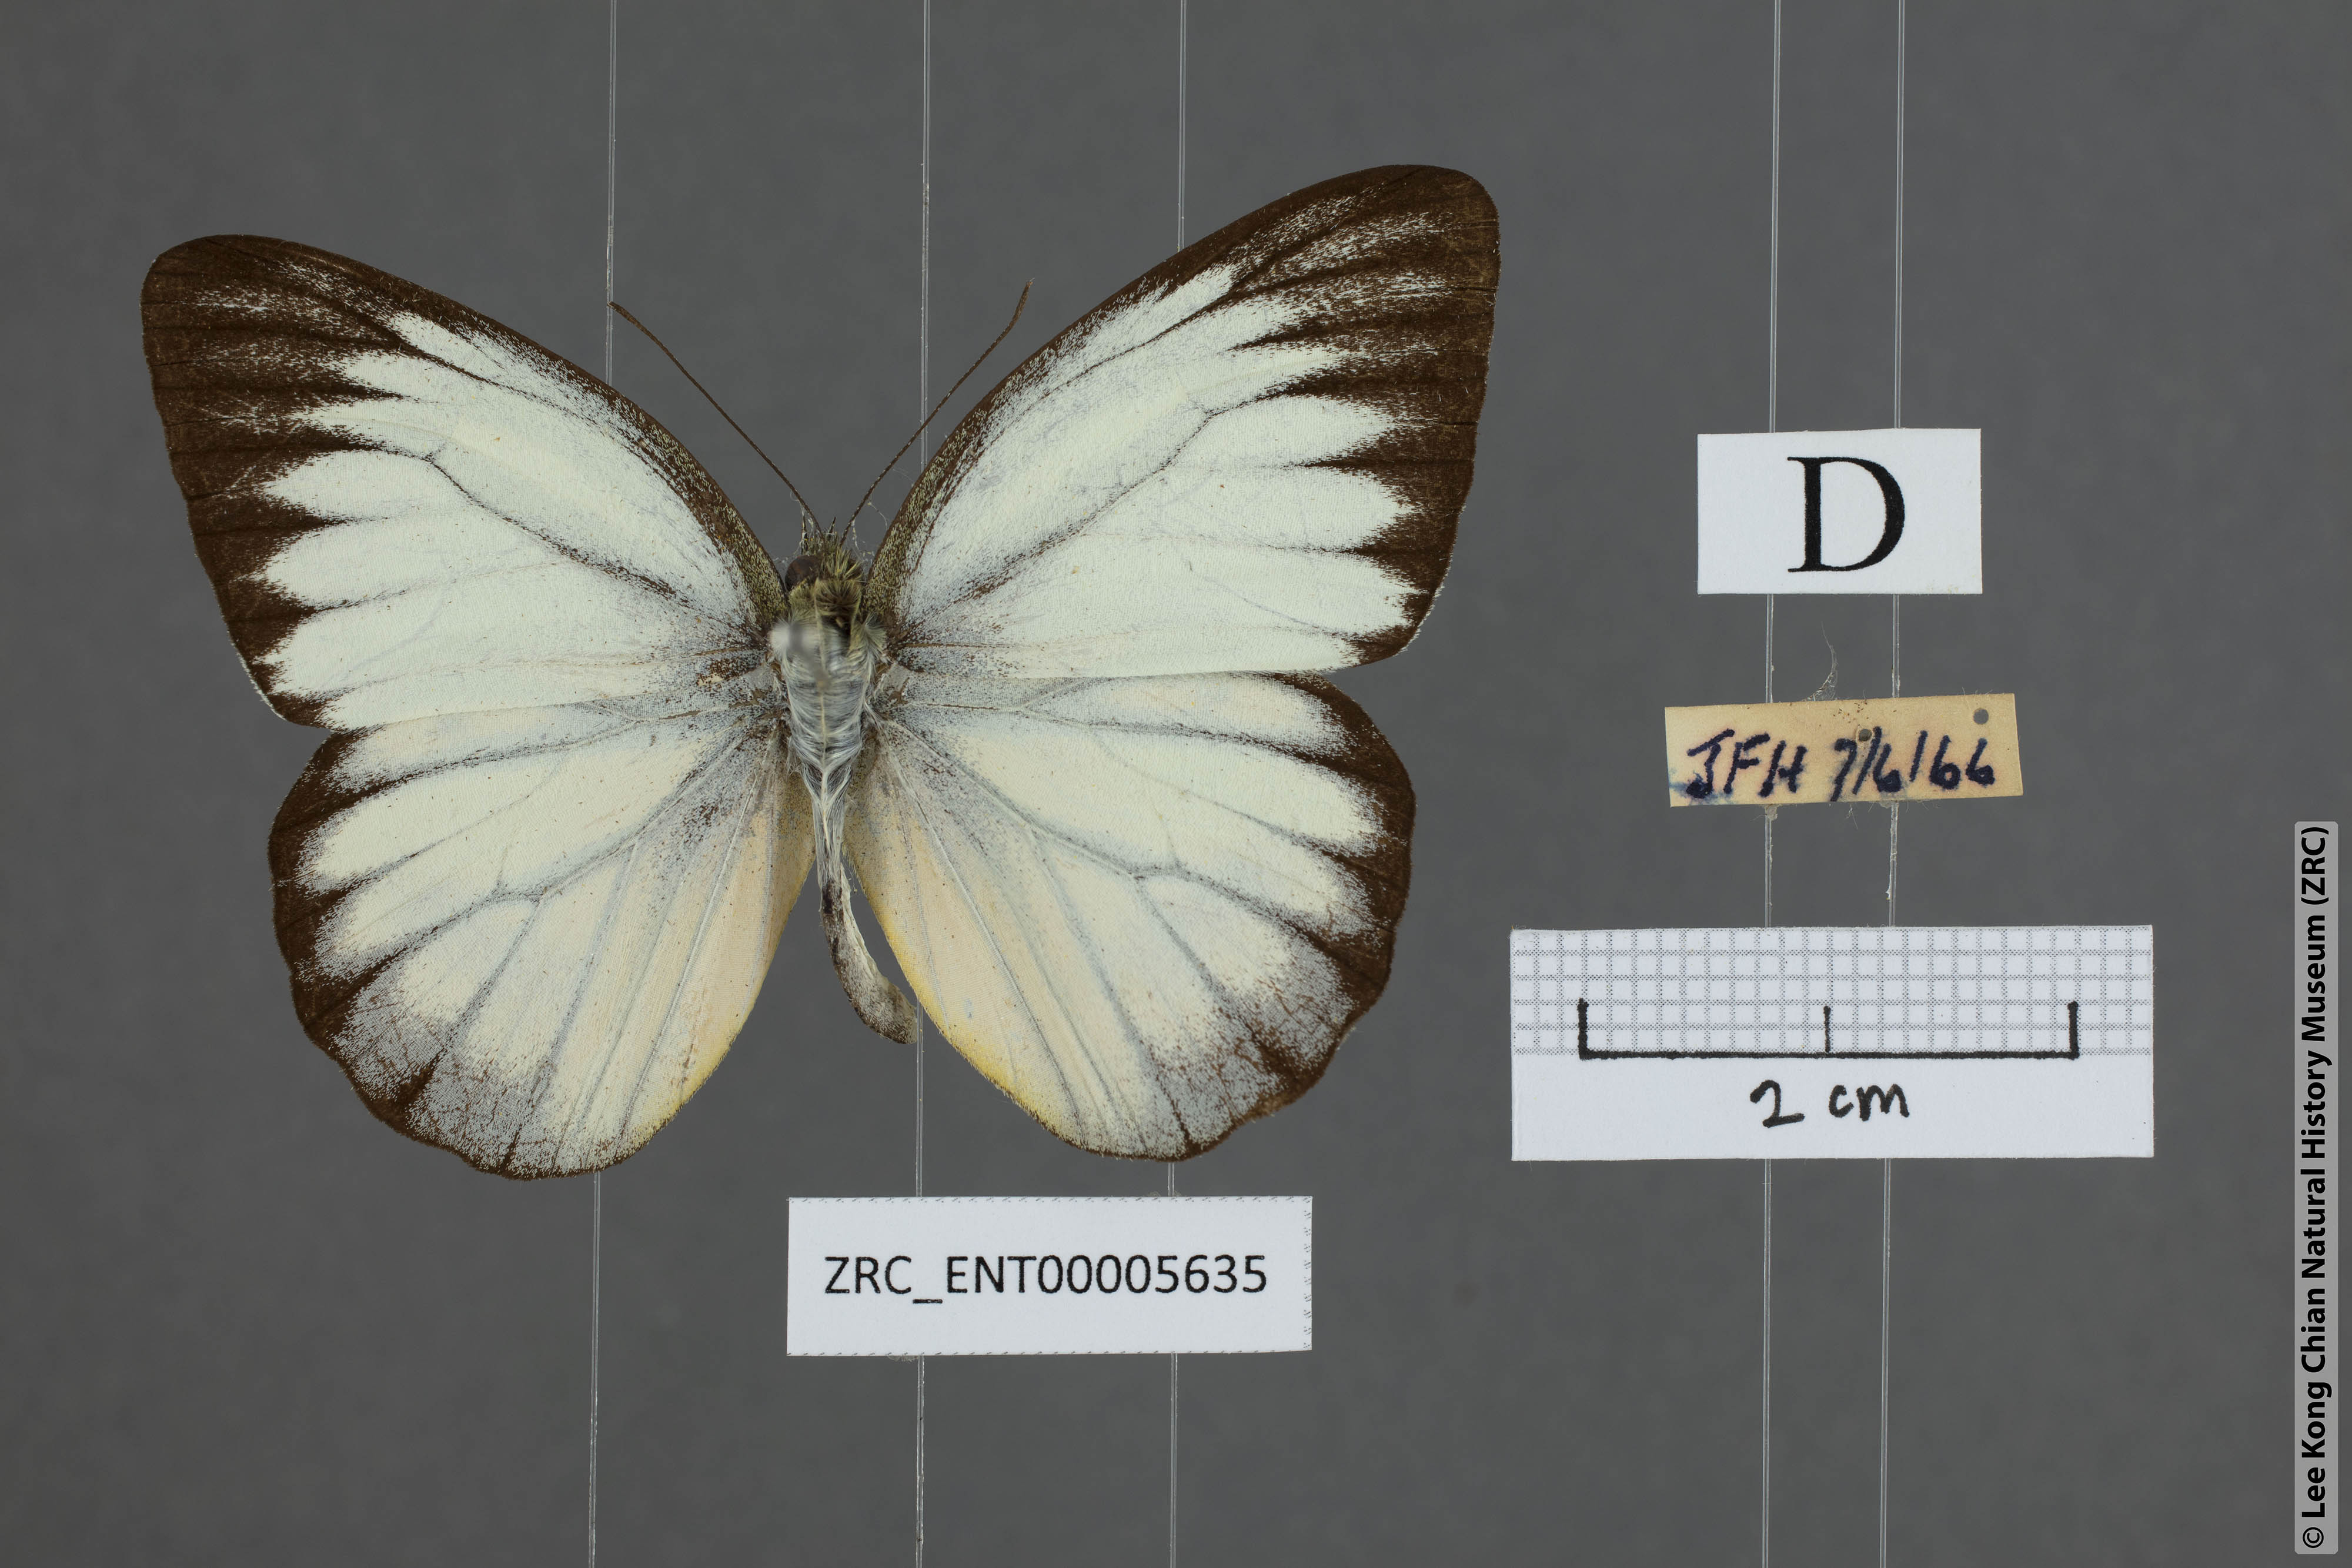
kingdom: Animalia
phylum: Arthropoda
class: Insecta
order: Lepidoptera
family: Pieridae
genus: Cepora
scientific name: Cepora nadina
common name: Lesser gull
